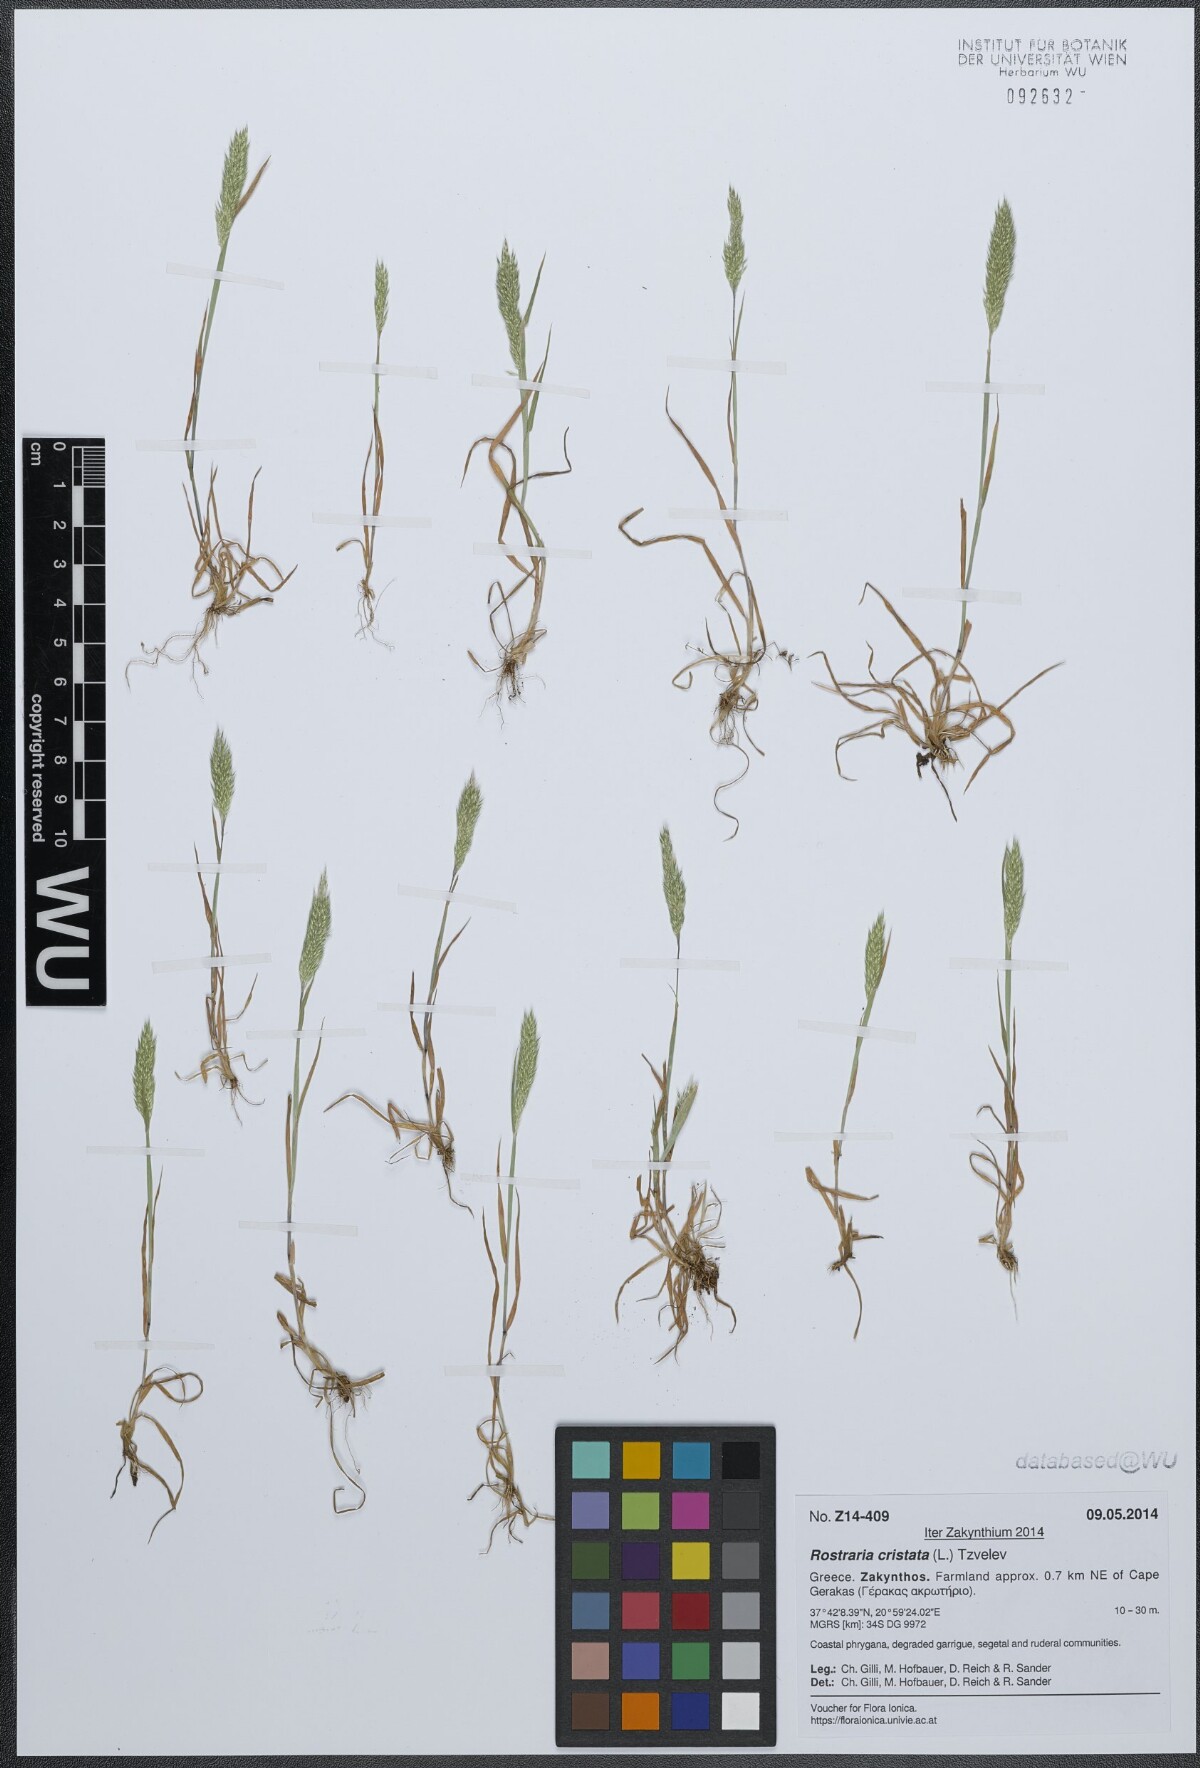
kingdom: Plantae
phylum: Tracheophyta
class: Liliopsida
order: Poales
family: Poaceae
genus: Rostraria
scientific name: Rostraria cristata
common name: Mediterranean hair-grass
